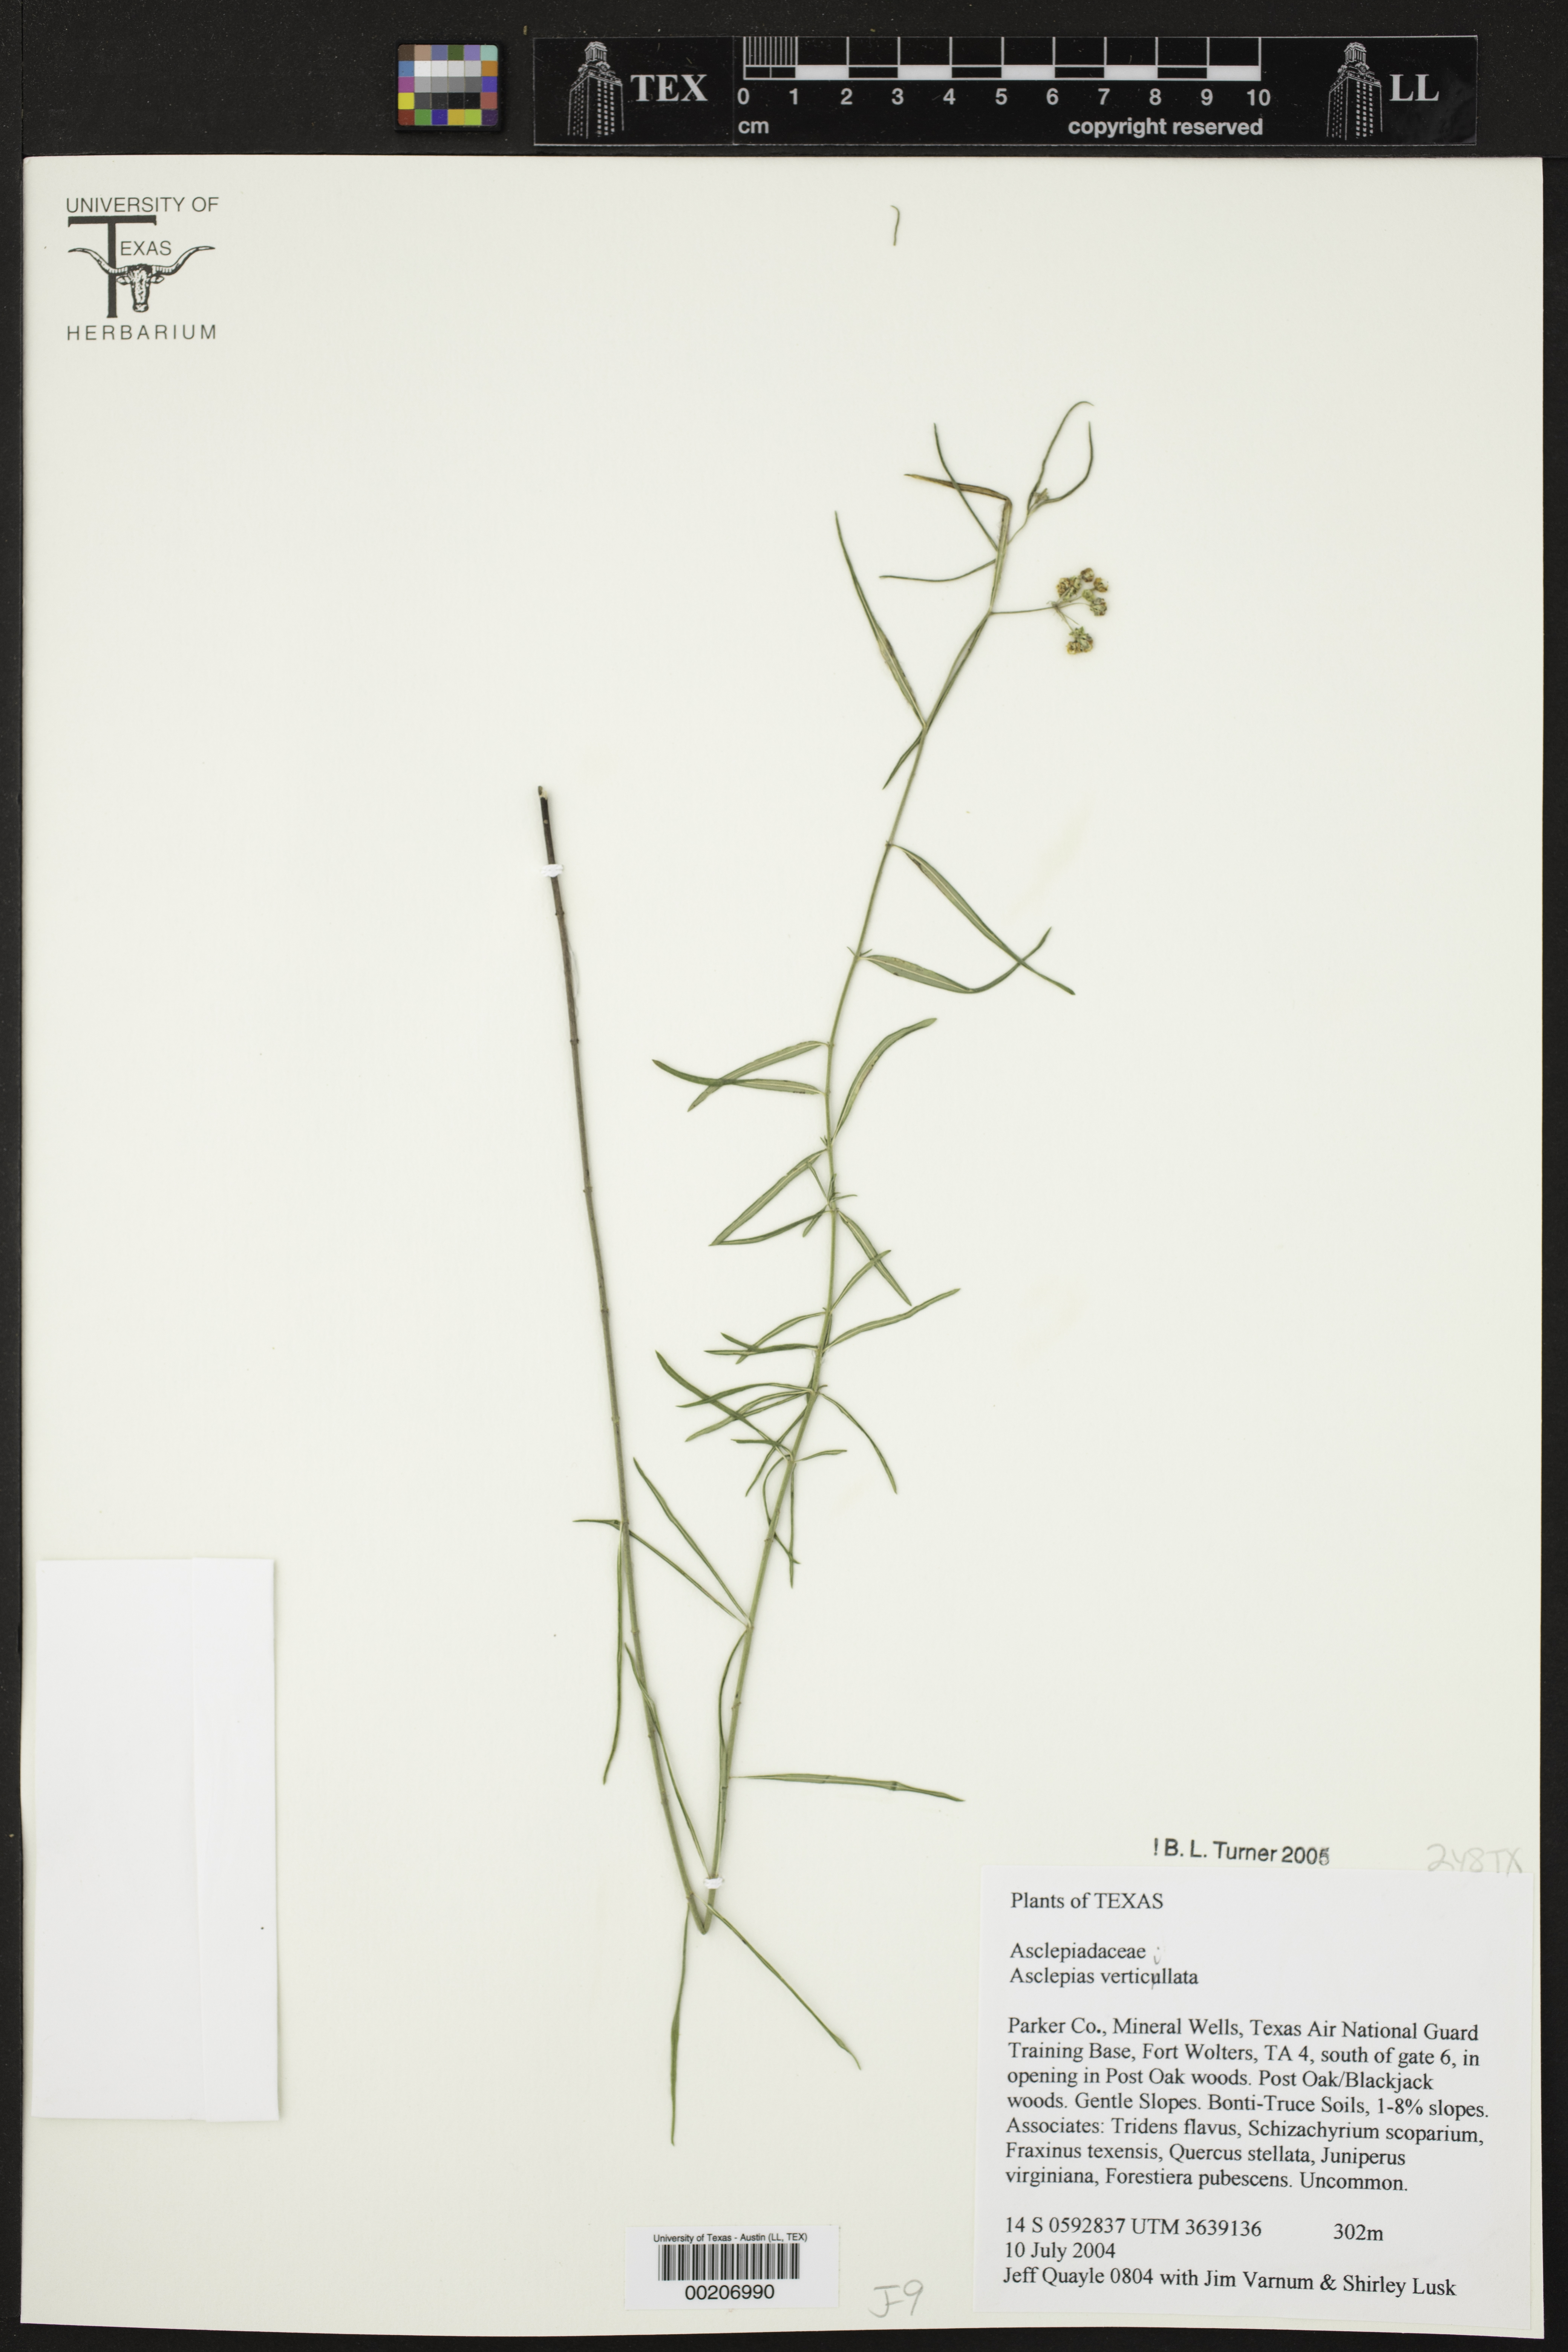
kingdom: Plantae
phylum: Tracheophyta
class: Magnoliopsida
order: Gentianales
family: Apocynaceae
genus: Asclepias
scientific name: Asclepias verticillata
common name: Eastern whorled milkweed
